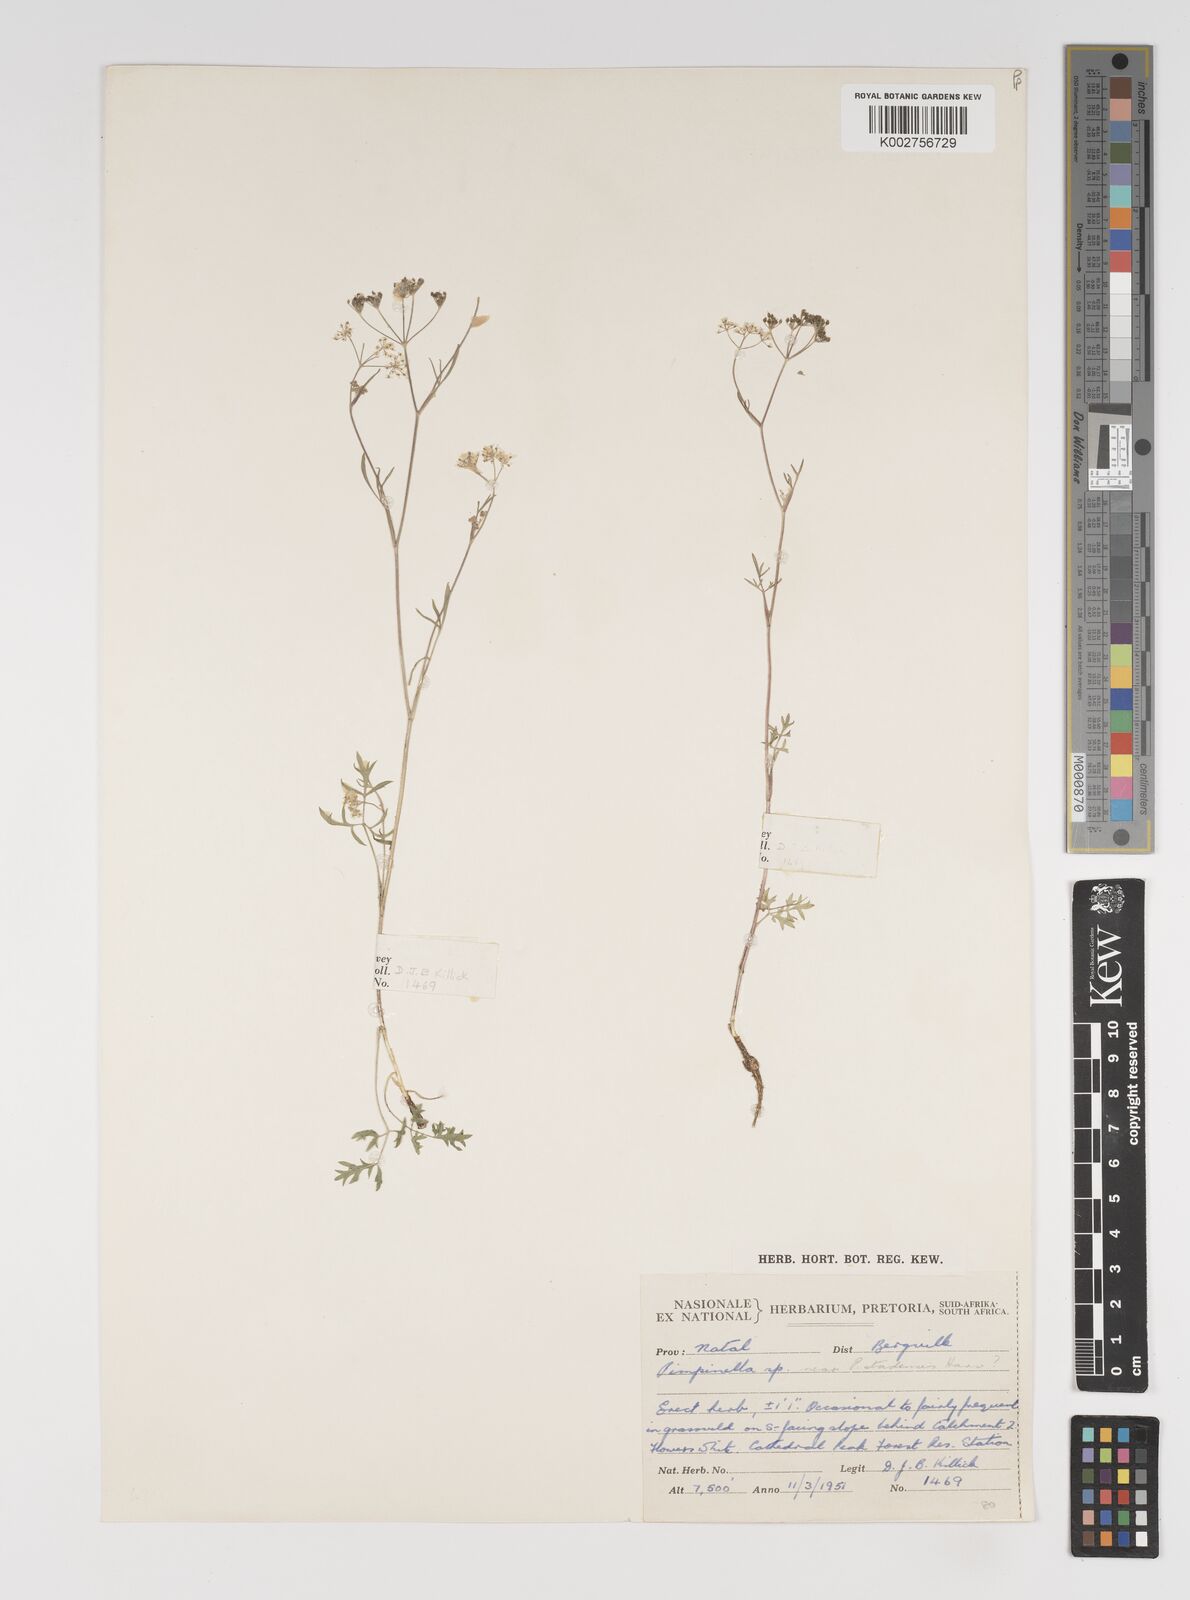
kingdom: Plantae
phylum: Tracheophyta
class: Magnoliopsida
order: Apiales
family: Apiaceae
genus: Pimpinella
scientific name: Pimpinella caffra
